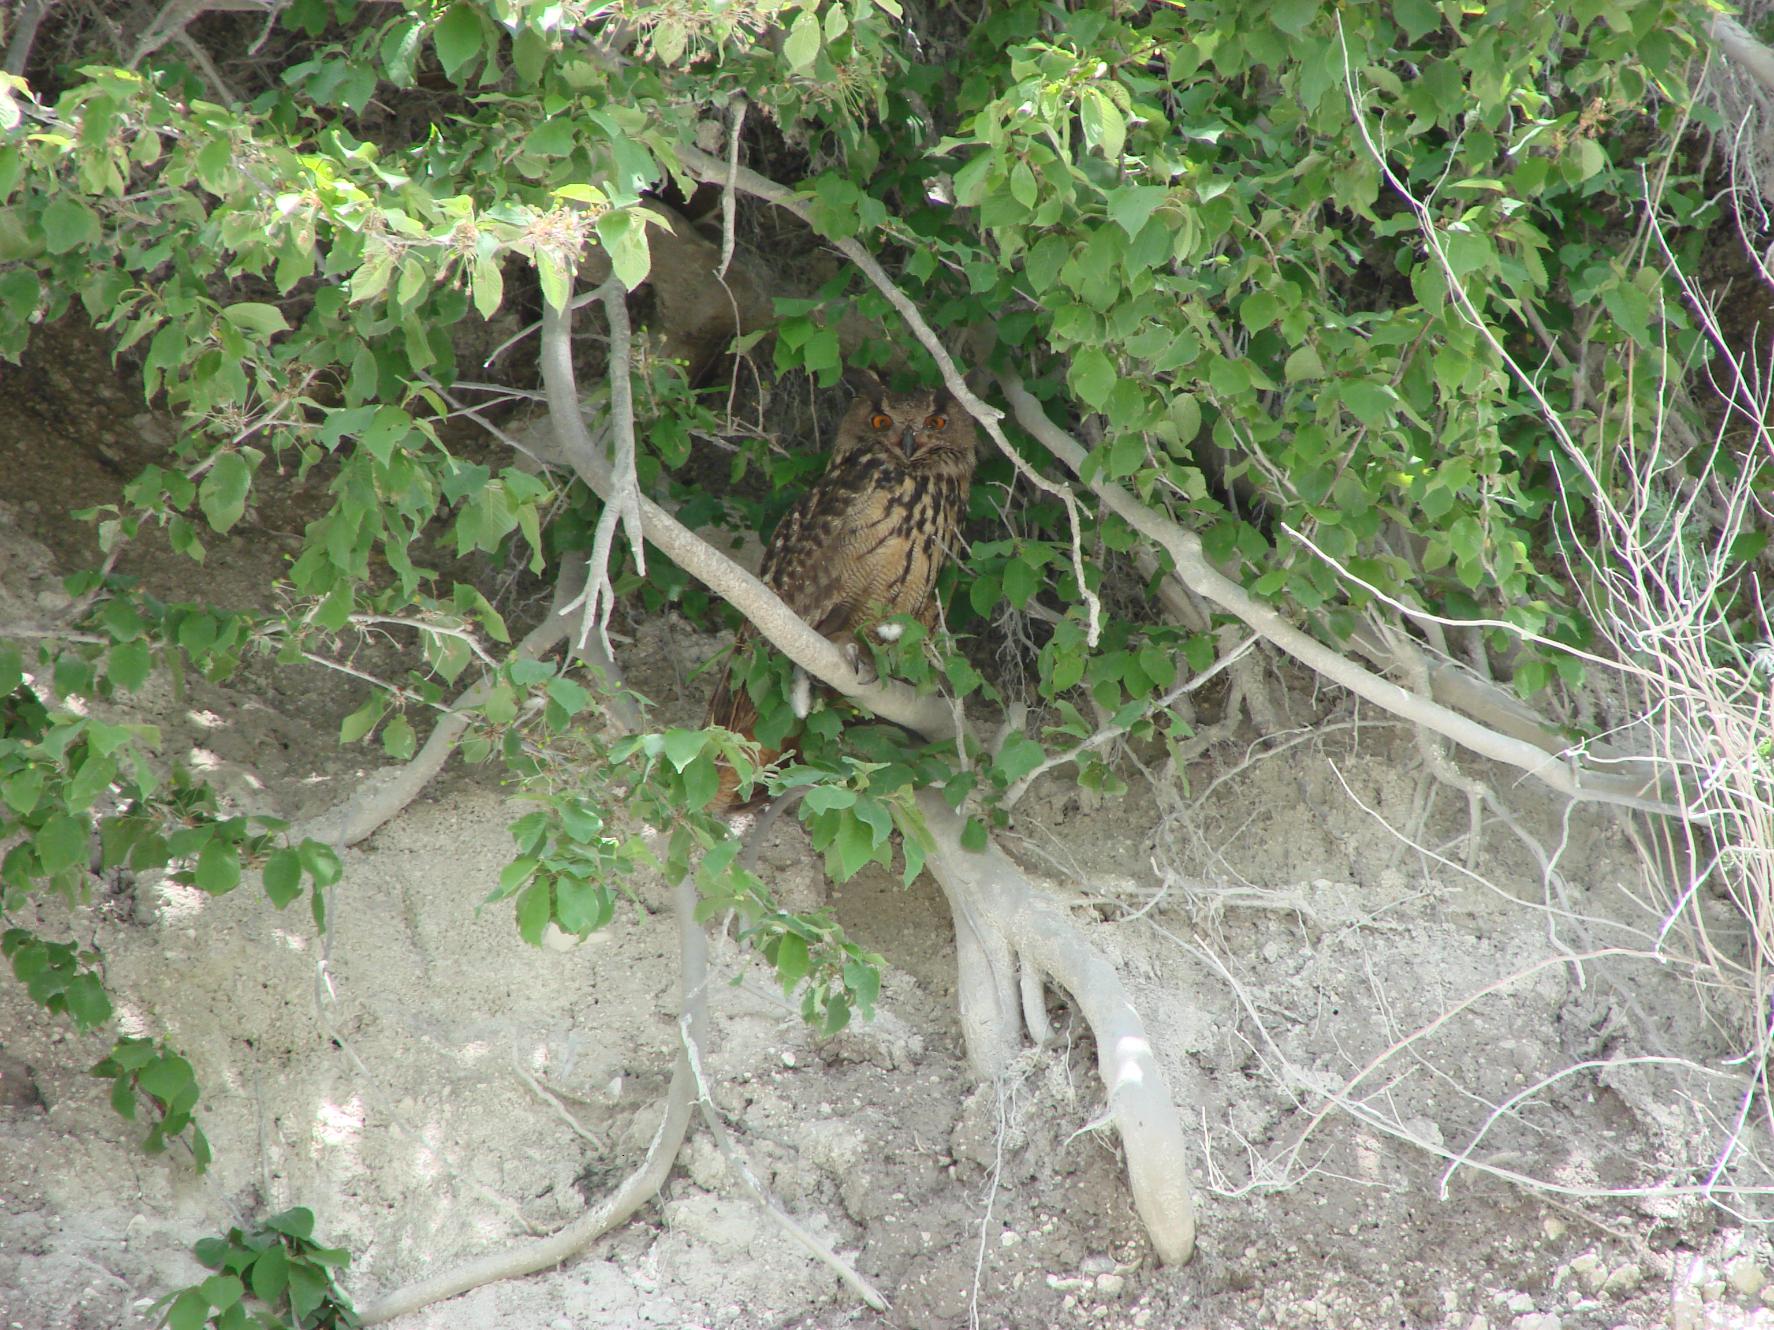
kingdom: Animalia
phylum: Chordata
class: Aves
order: Strigiformes
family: Strigidae
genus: Bubo
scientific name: Bubo bubo
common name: Stor hornugle
